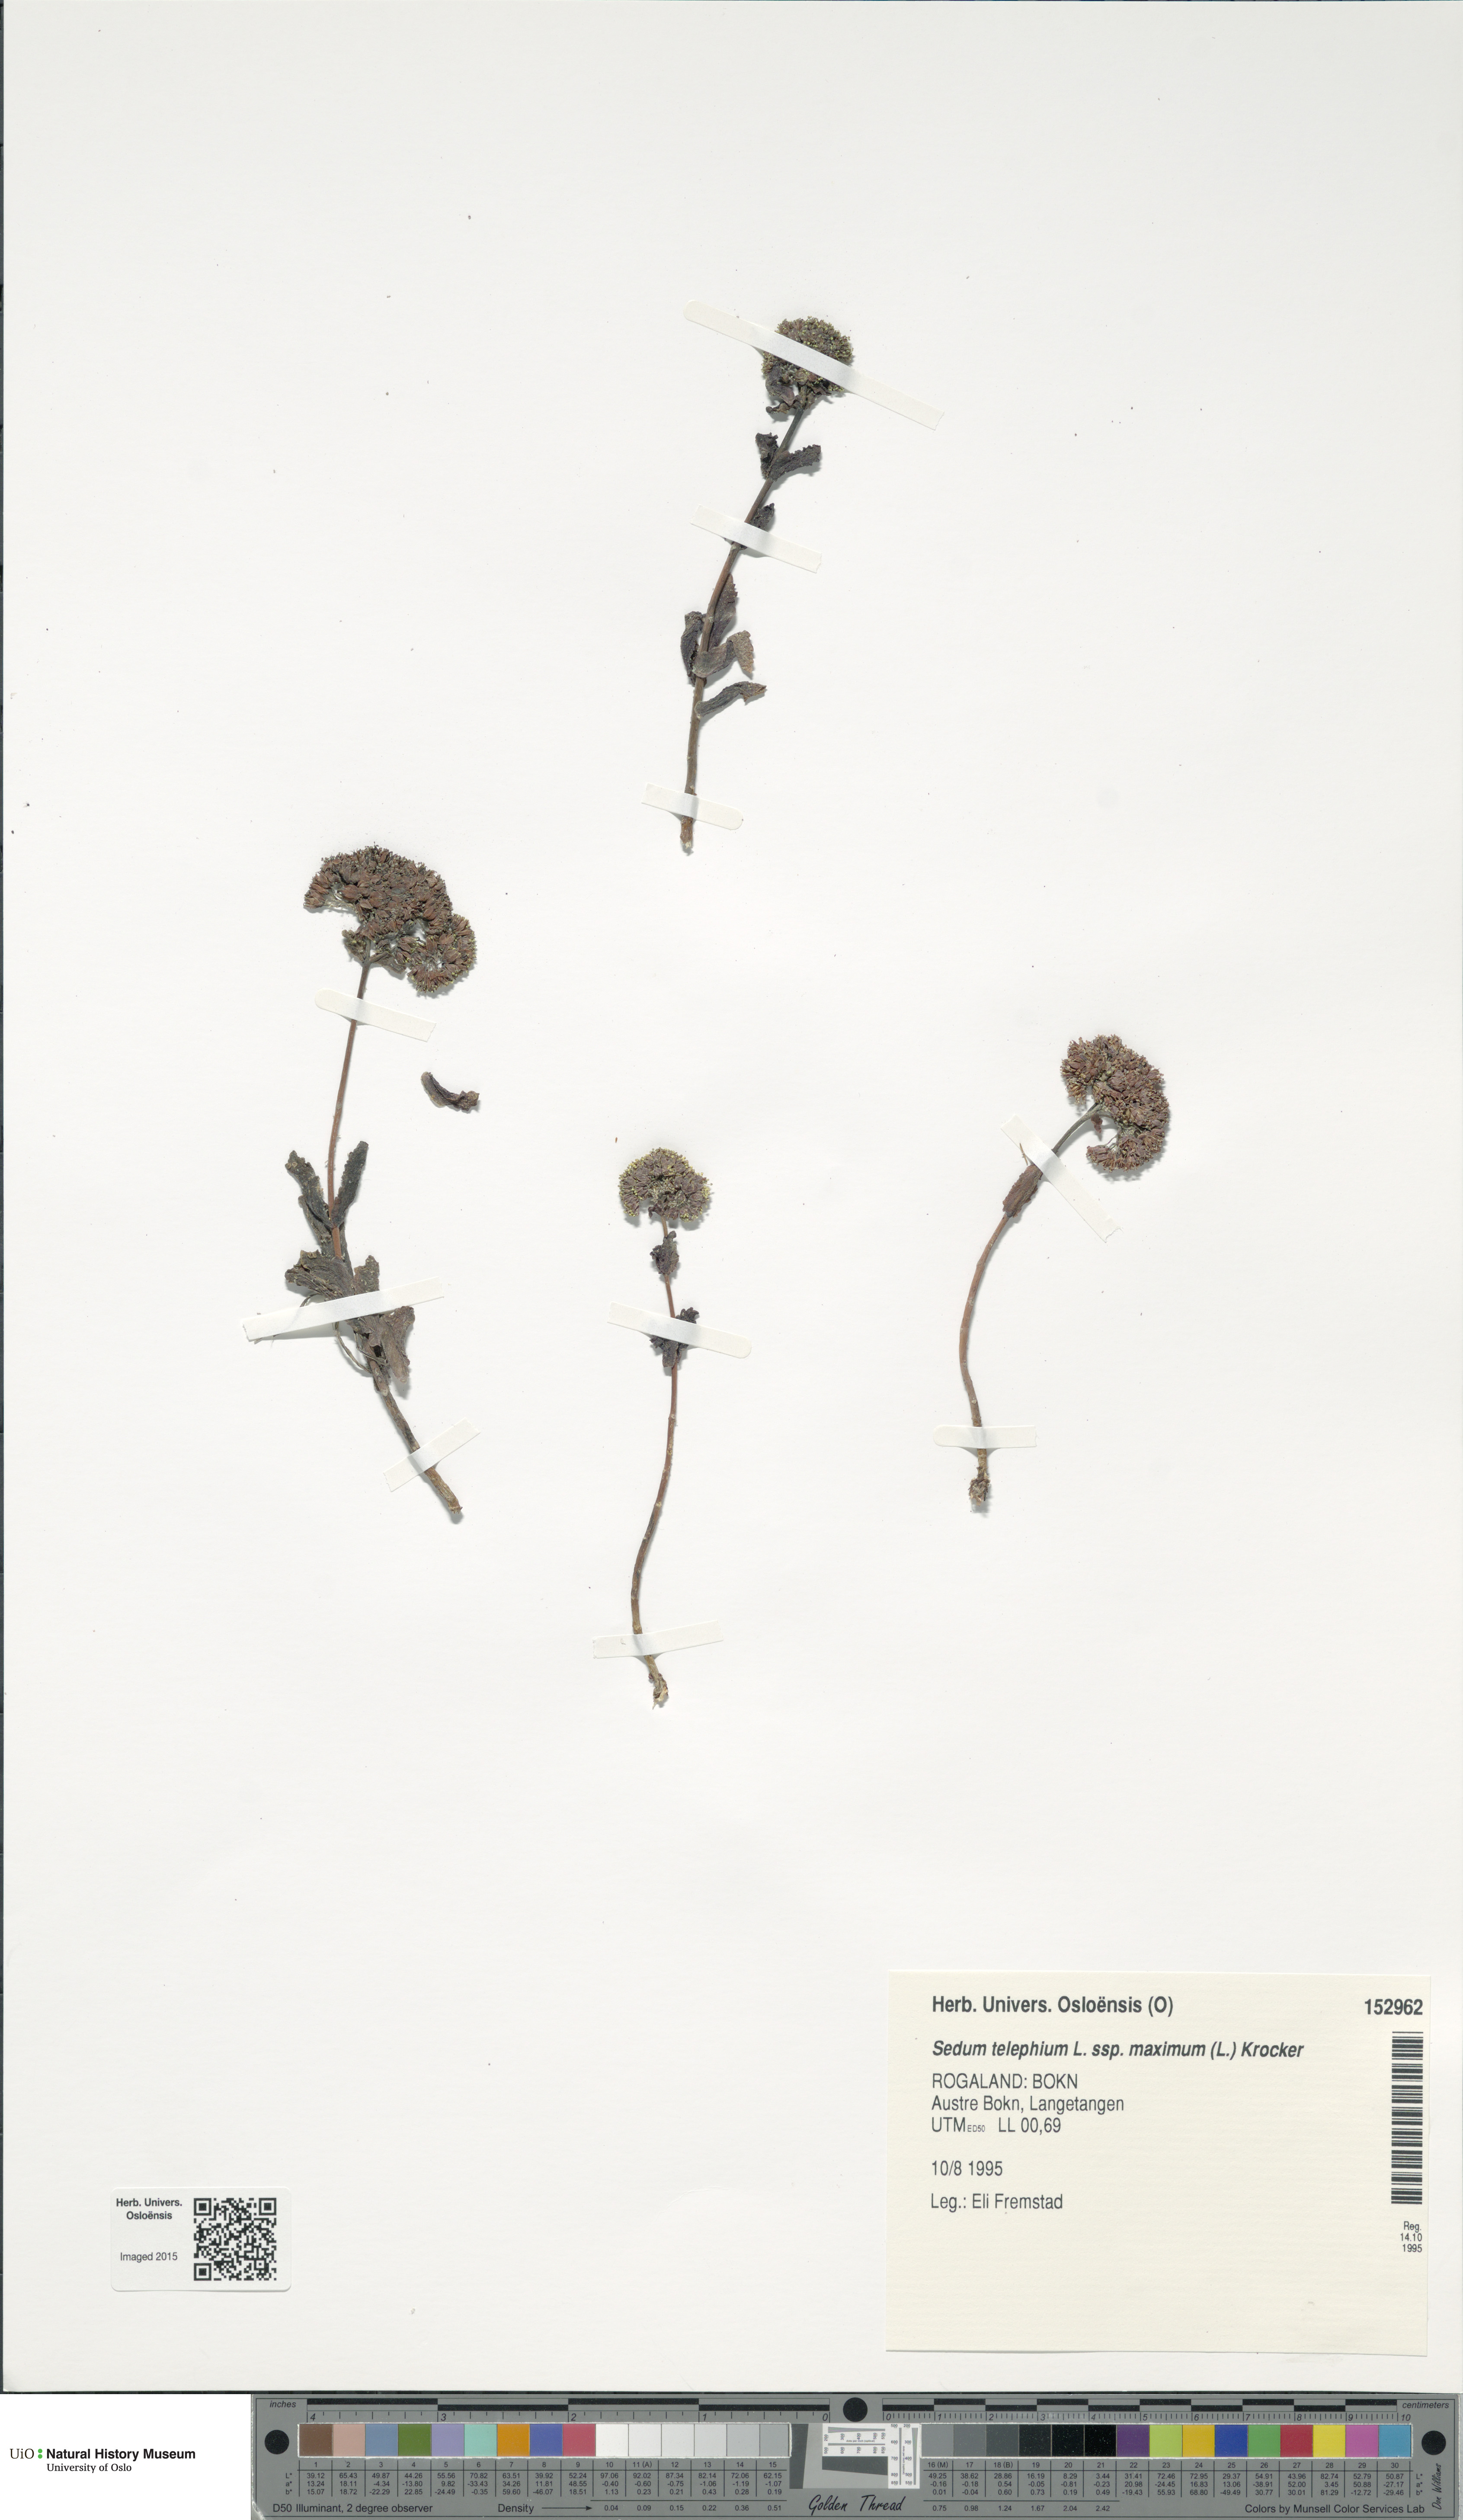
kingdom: Plantae
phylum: Tracheophyta
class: Magnoliopsida
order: Saxifragales
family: Crassulaceae
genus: Hylotelephium
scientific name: Hylotelephium maximum
